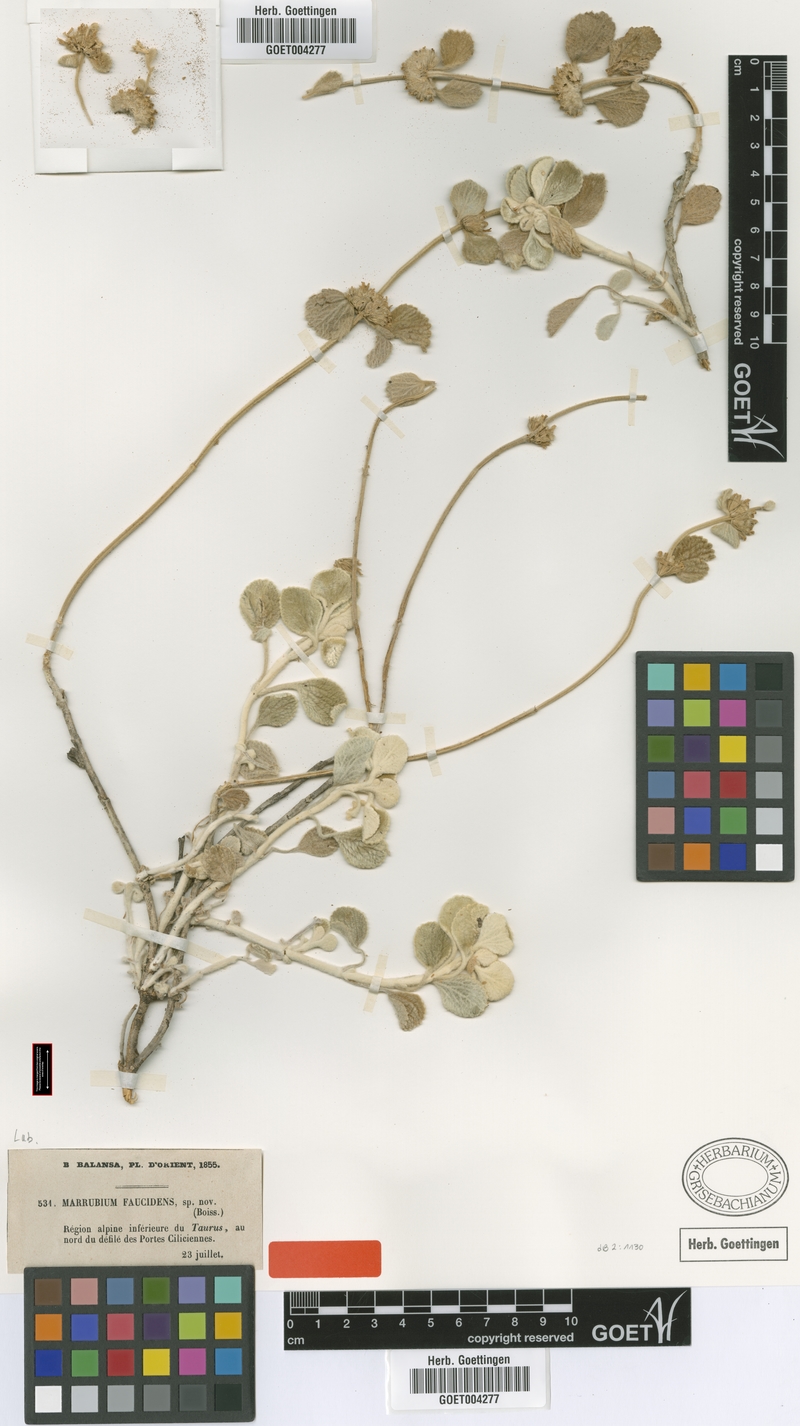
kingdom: Plantae
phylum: Tracheophyta
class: Magnoliopsida
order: Lamiales
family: Lamiaceae
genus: Marrubium
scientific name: Marrubium globosum
